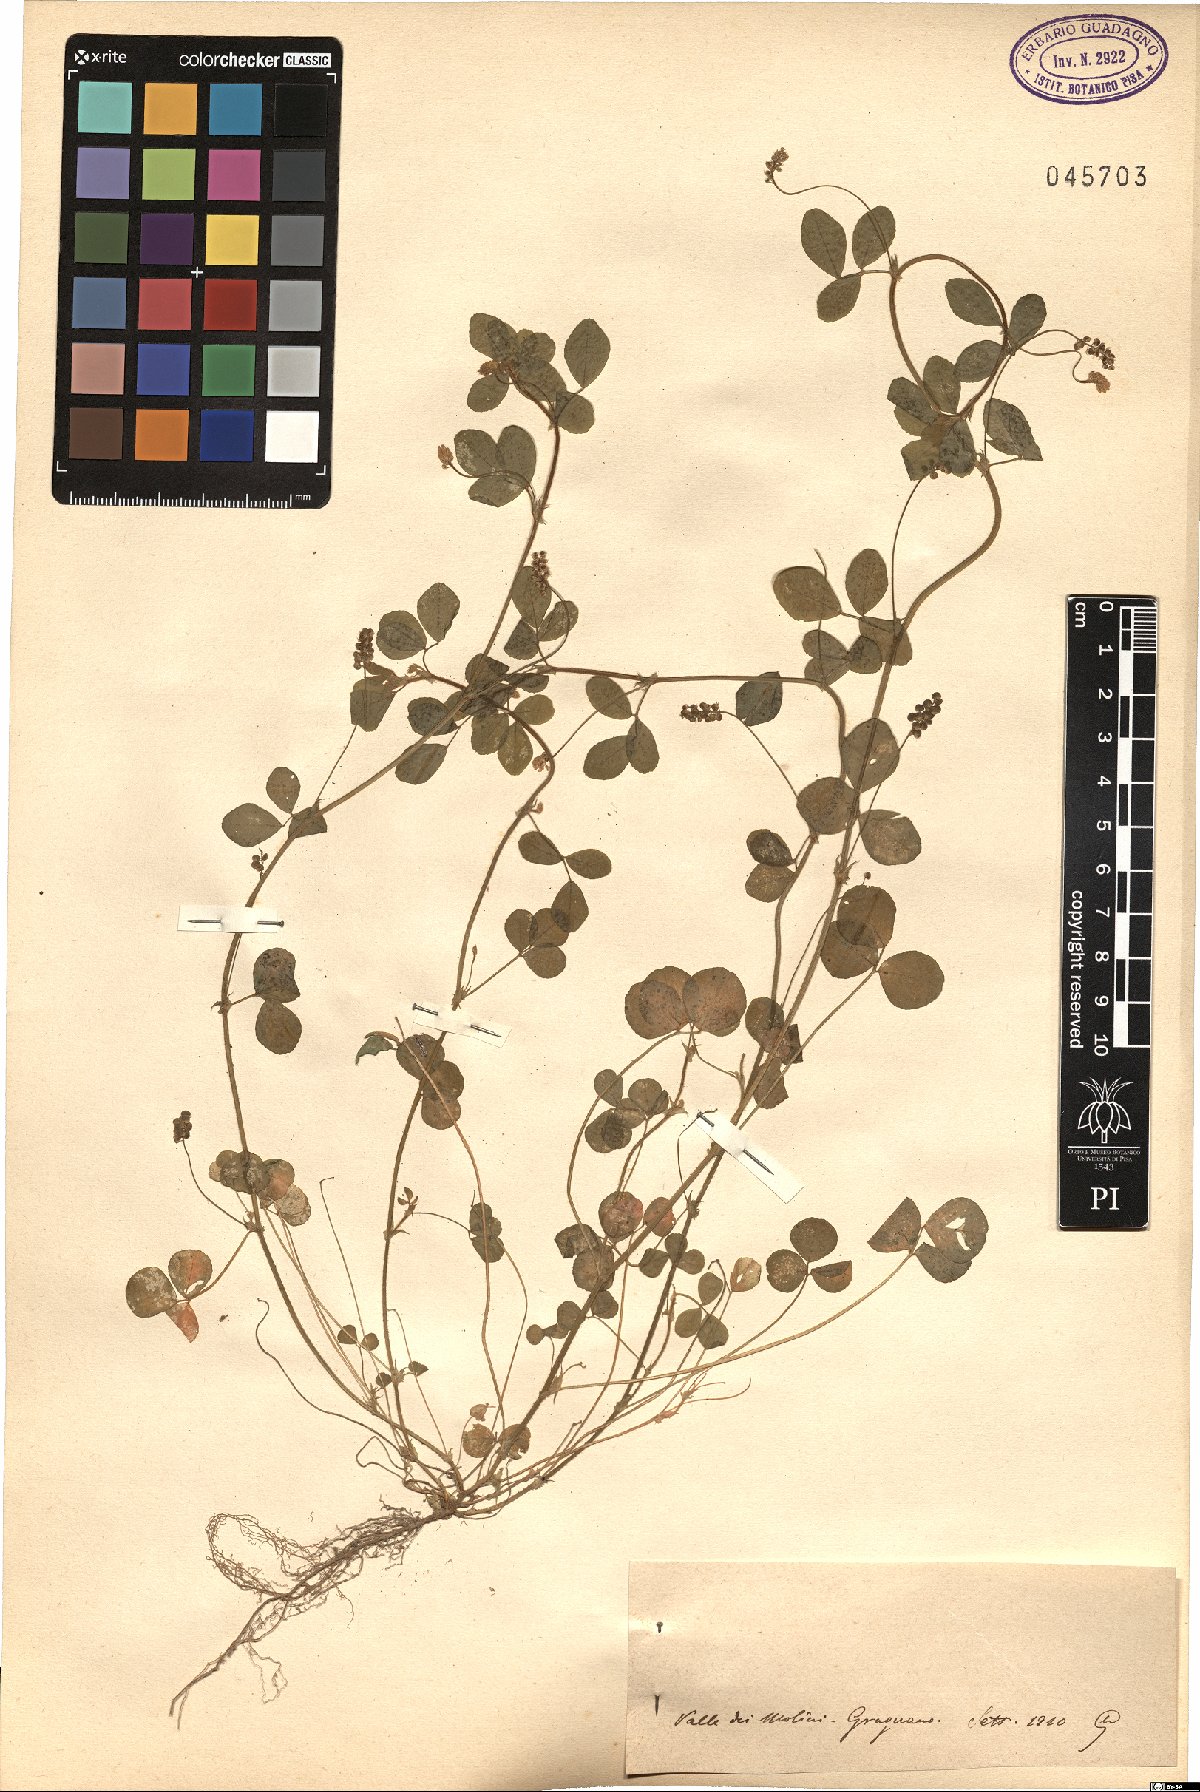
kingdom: Plantae
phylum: Tracheophyta
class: Magnoliopsida
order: Fabales
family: Fabaceae
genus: Medicago
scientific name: Medicago
